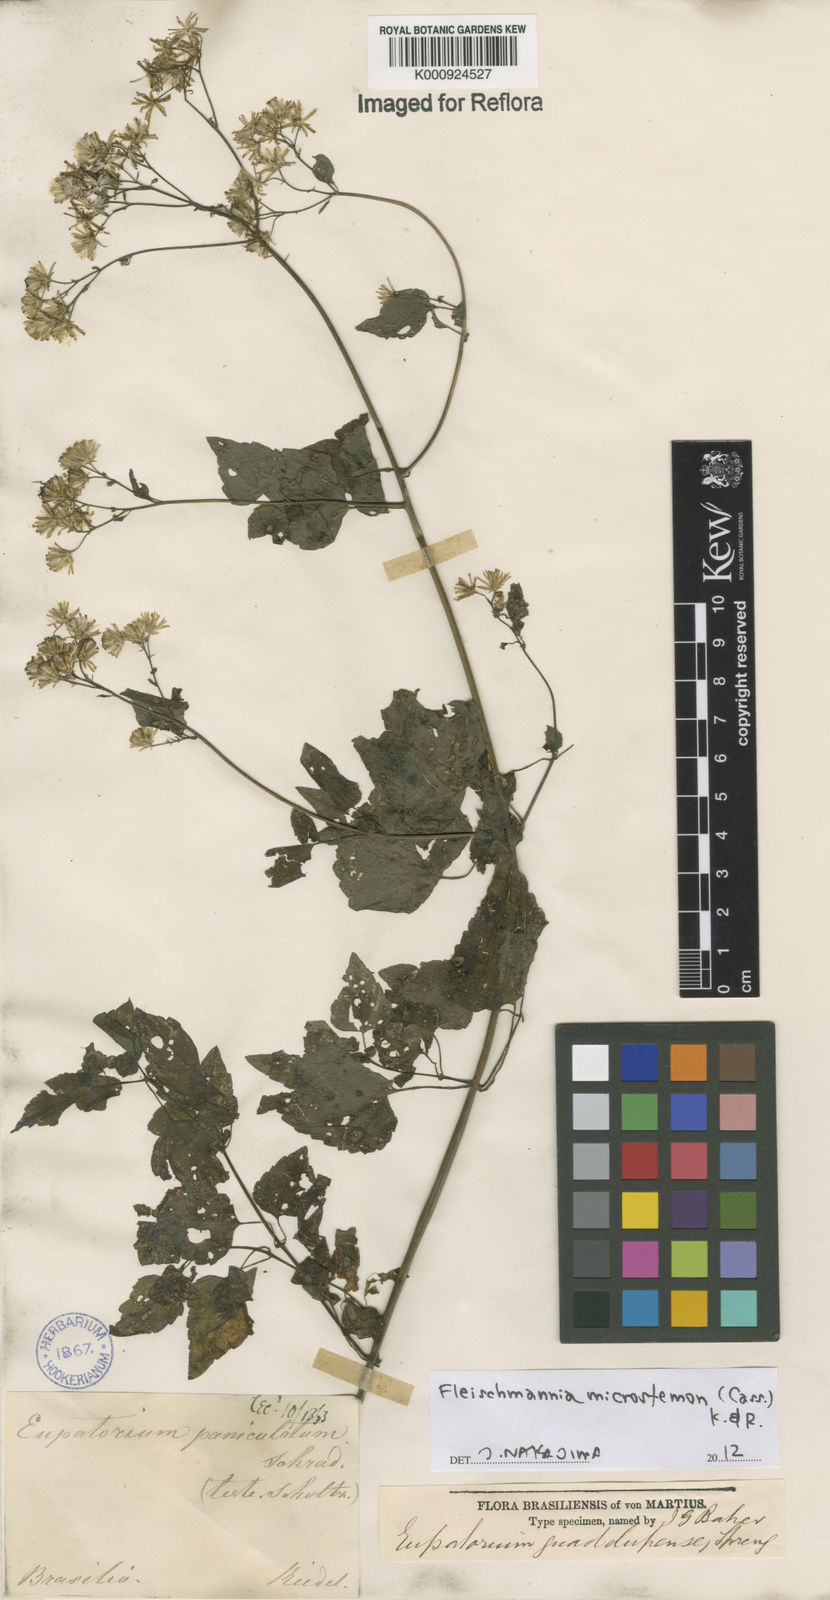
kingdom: Plantae
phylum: Tracheophyta
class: Magnoliopsida
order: Asterales
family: Asteraceae
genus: Fleischmannia
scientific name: Fleischmannia microstemon
